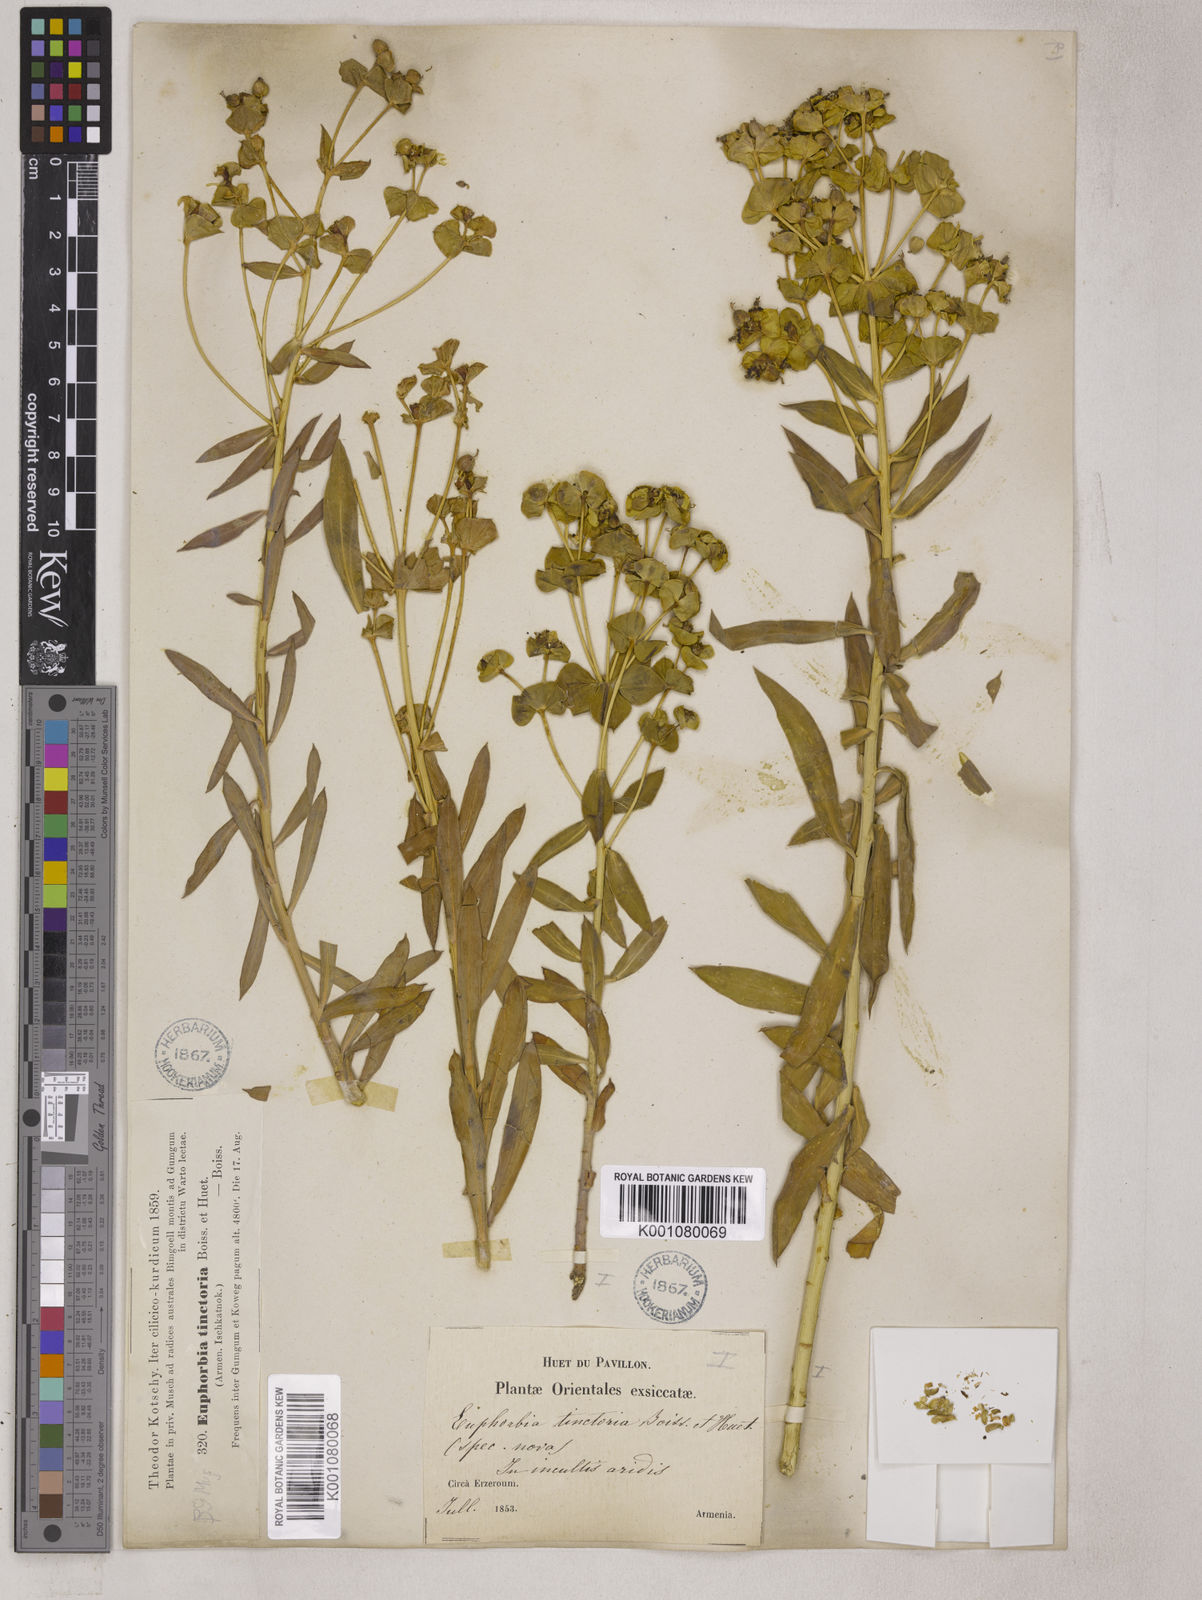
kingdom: Plantae
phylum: Tracheophyta
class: Magnoliopsida
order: Malpighiales
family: Euphorbiaceae
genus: Euphorbia
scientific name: Euphorbia macroclada
